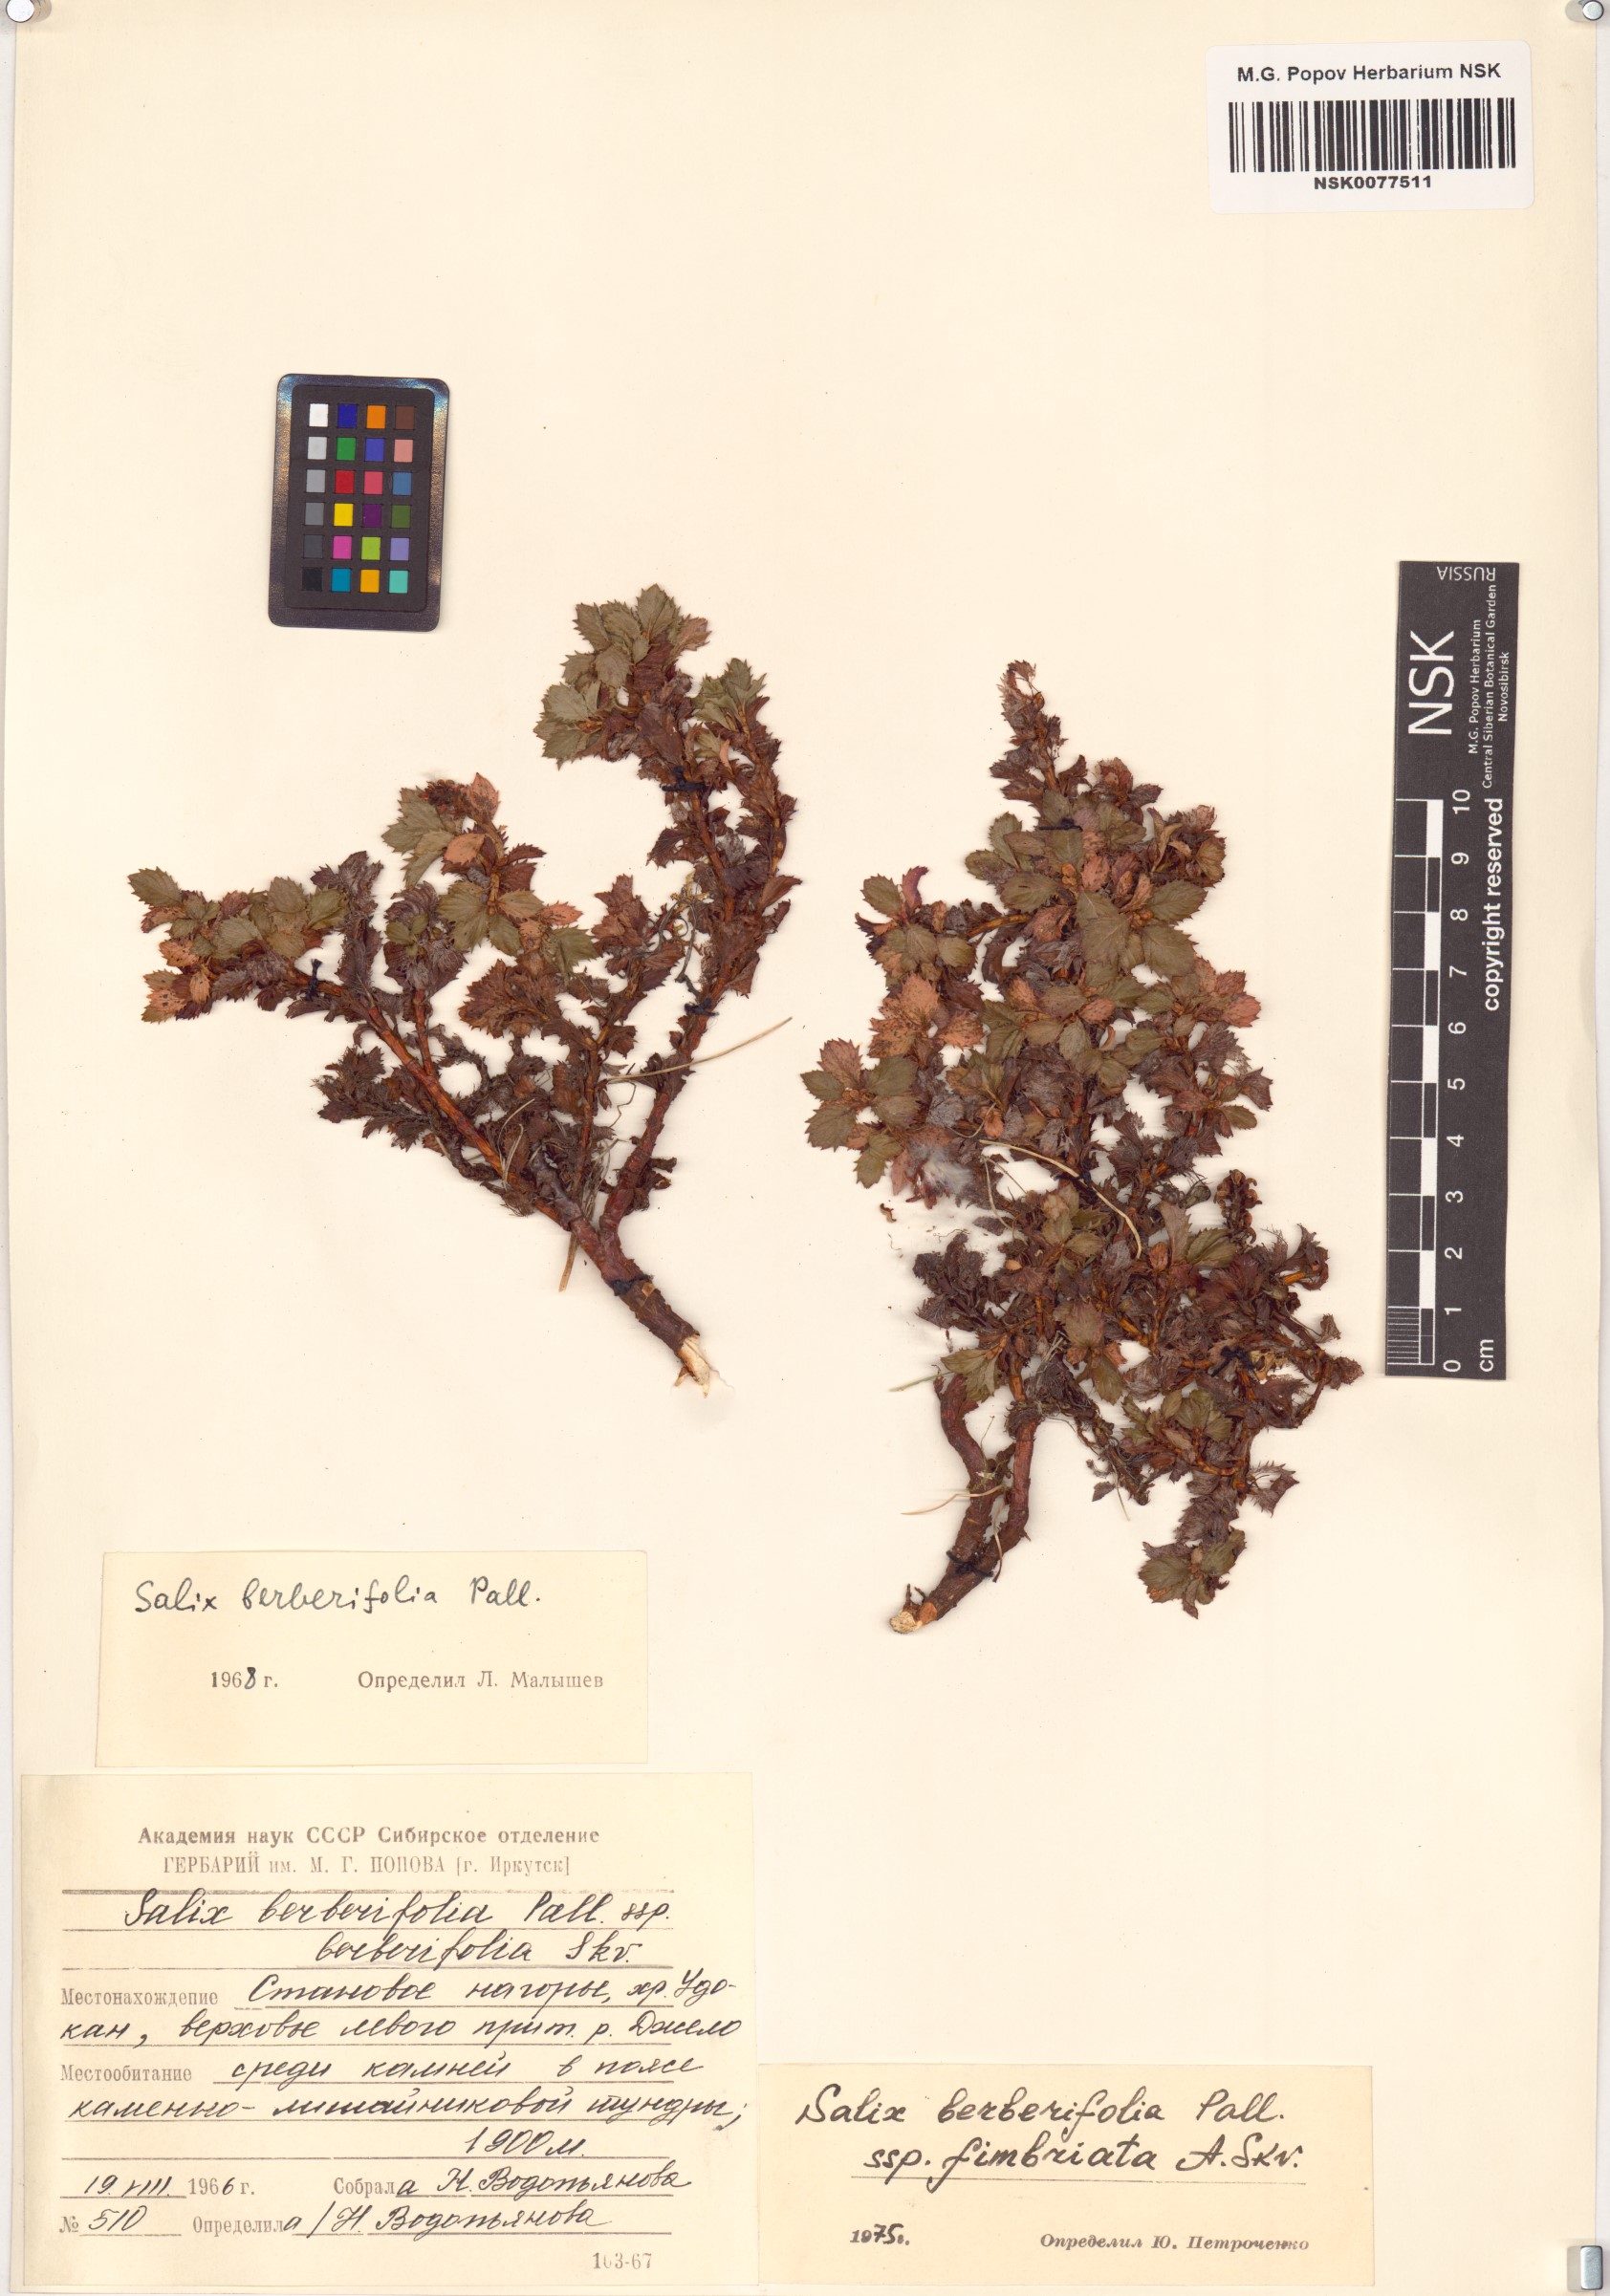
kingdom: Plantae
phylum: Tracheophyta
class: Magnoliopsida
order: Malpighiales
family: Salicaceae
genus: Salix
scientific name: Salix berberifolia
